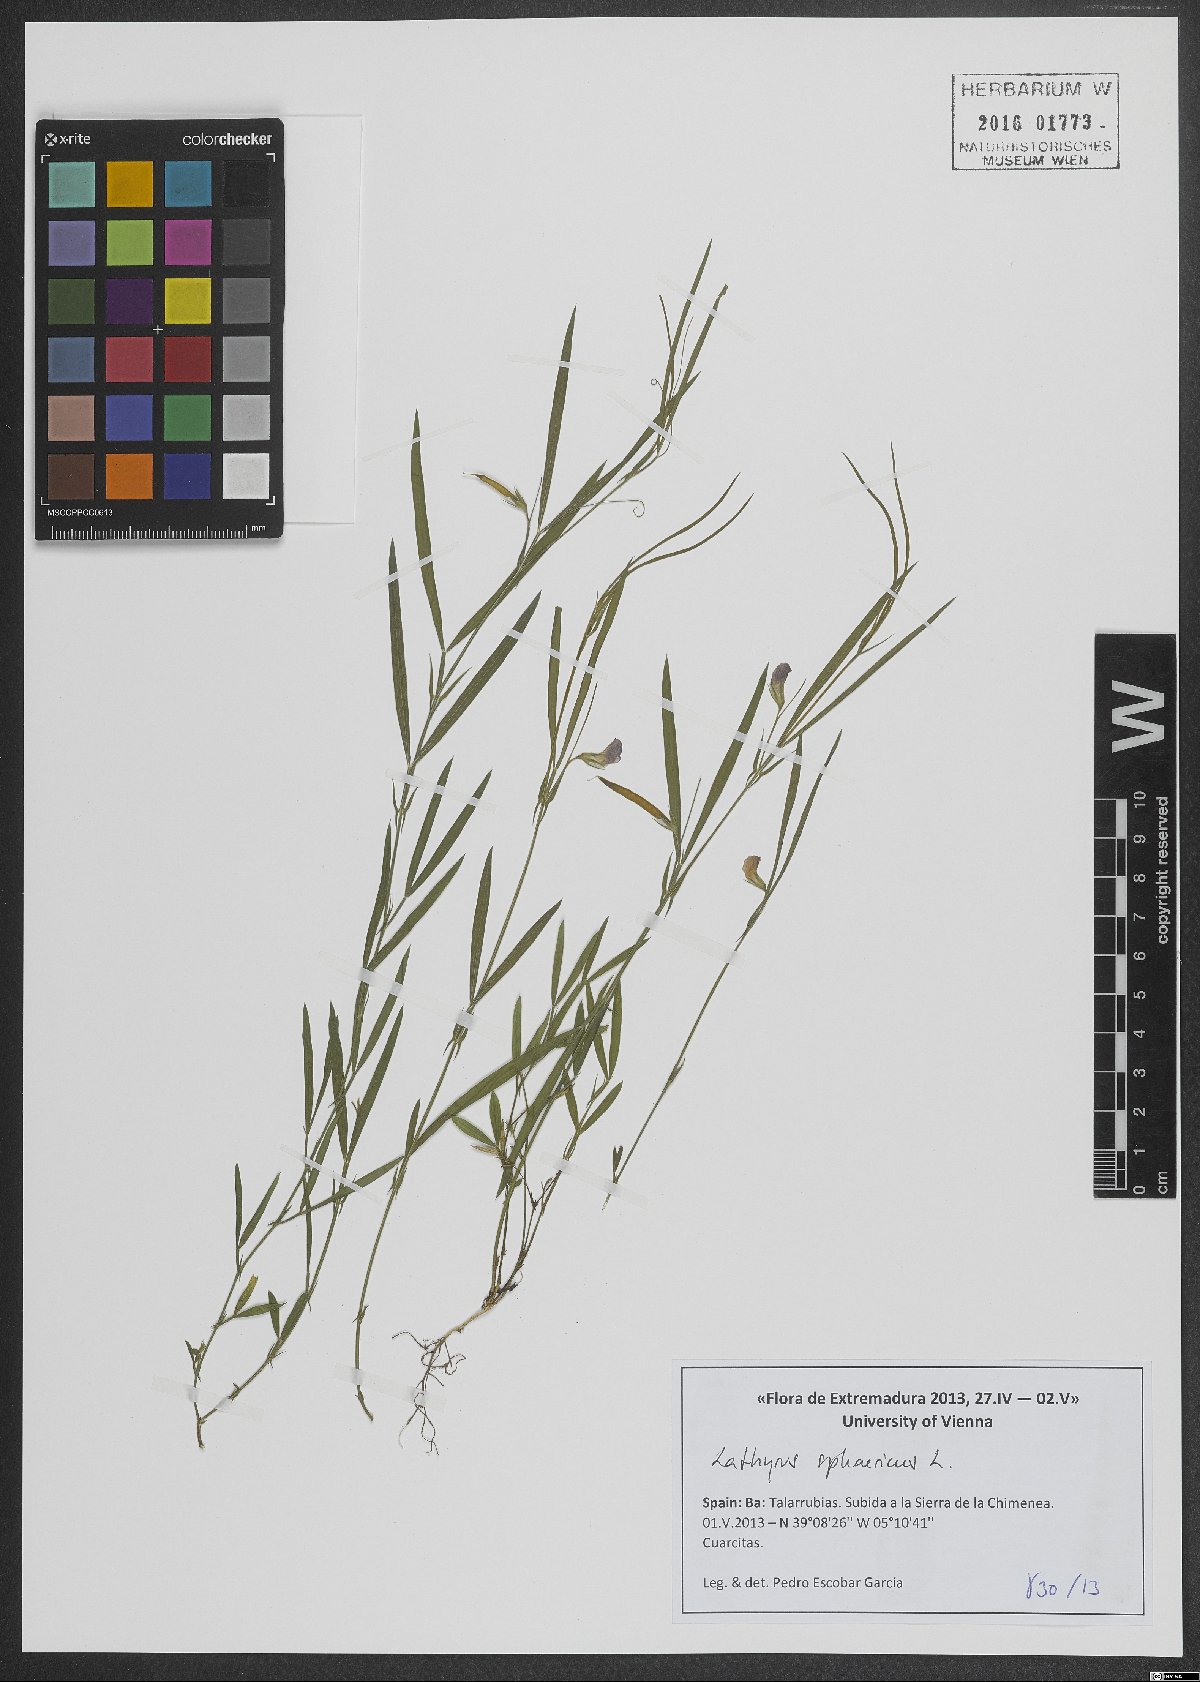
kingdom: Plantae
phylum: Tracheophyta
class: Magnoliopsida
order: Fabales
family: Fabaceae
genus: Lathyrus
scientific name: Lathyrus sphaericus
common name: Grass pea
